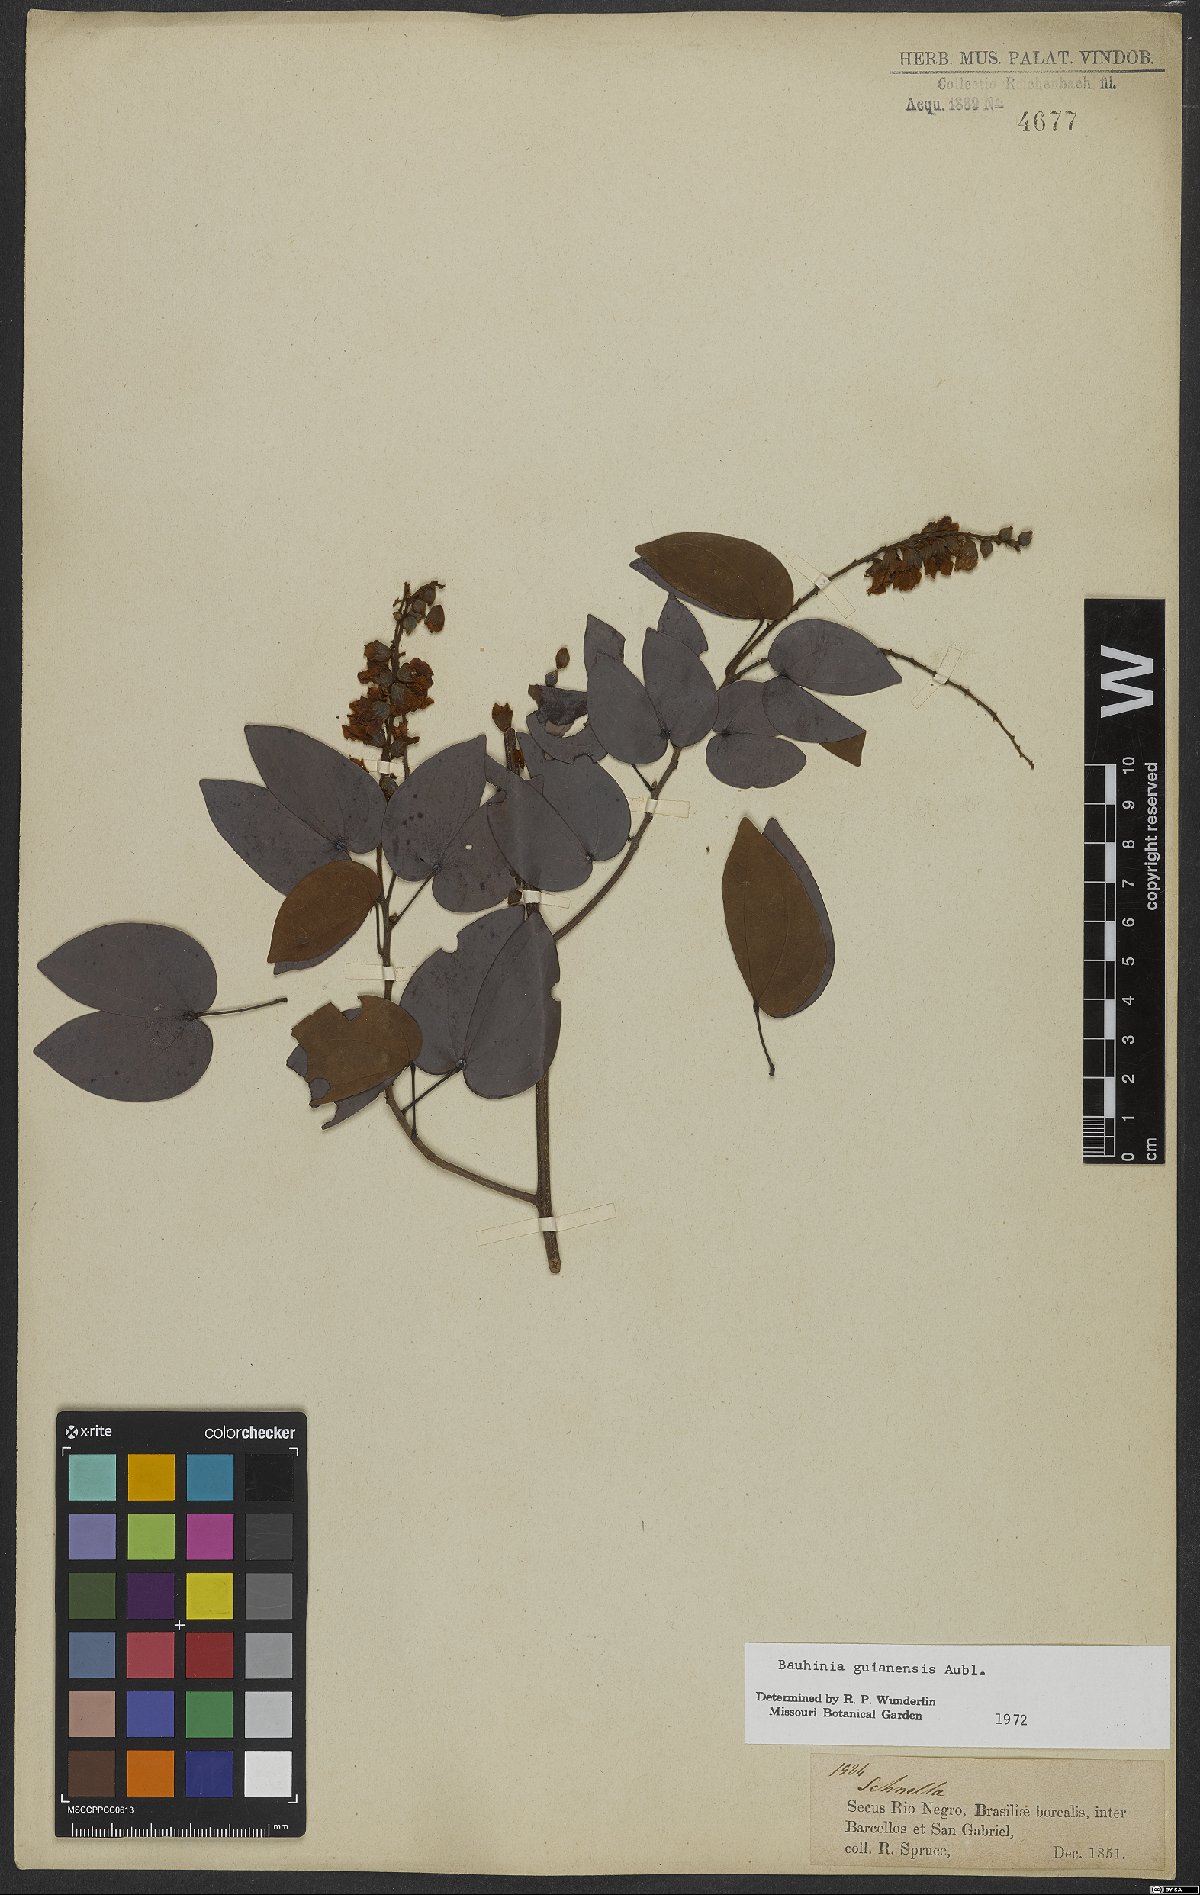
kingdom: Plantae
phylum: Tracheophyta
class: Magnoliopsida
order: Fabales
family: Fabaceae
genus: Schnella
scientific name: Schnella guianensis
